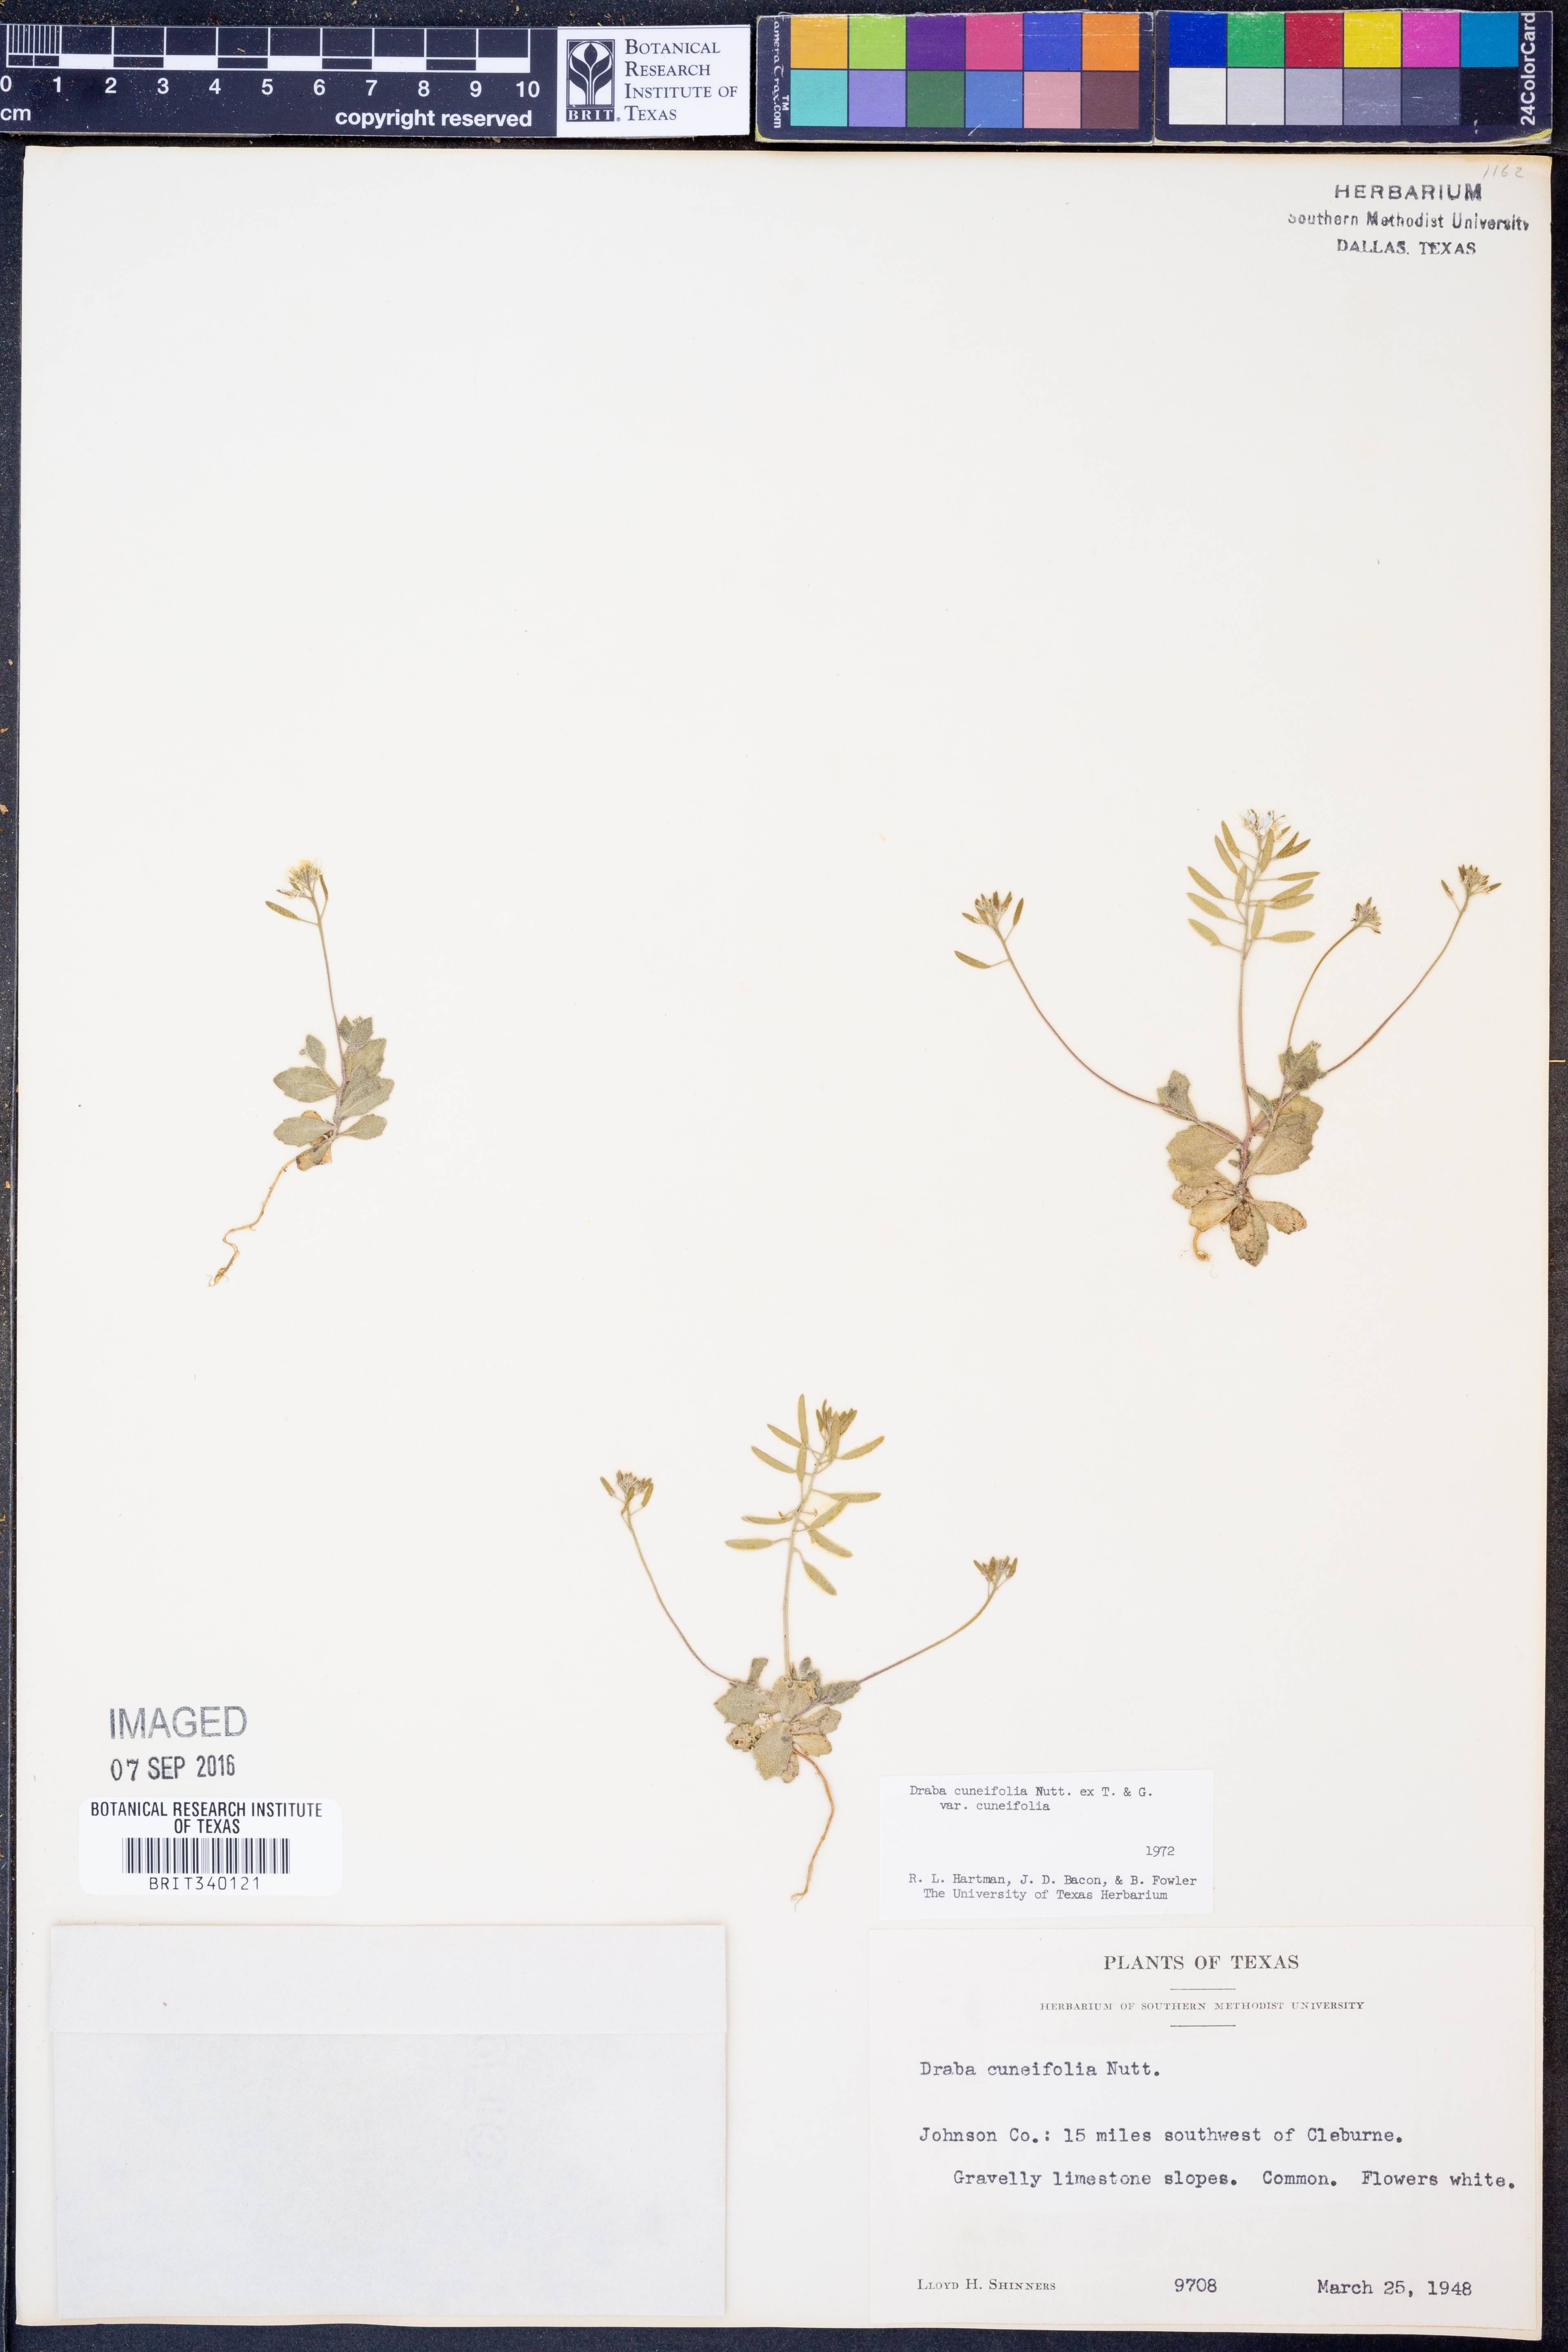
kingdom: Plantae
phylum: Tracheophyta
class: Magnoliopsida
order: Brassicales
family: Brassicaceae
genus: Tomostima
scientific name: Tomostima cuneifolia
